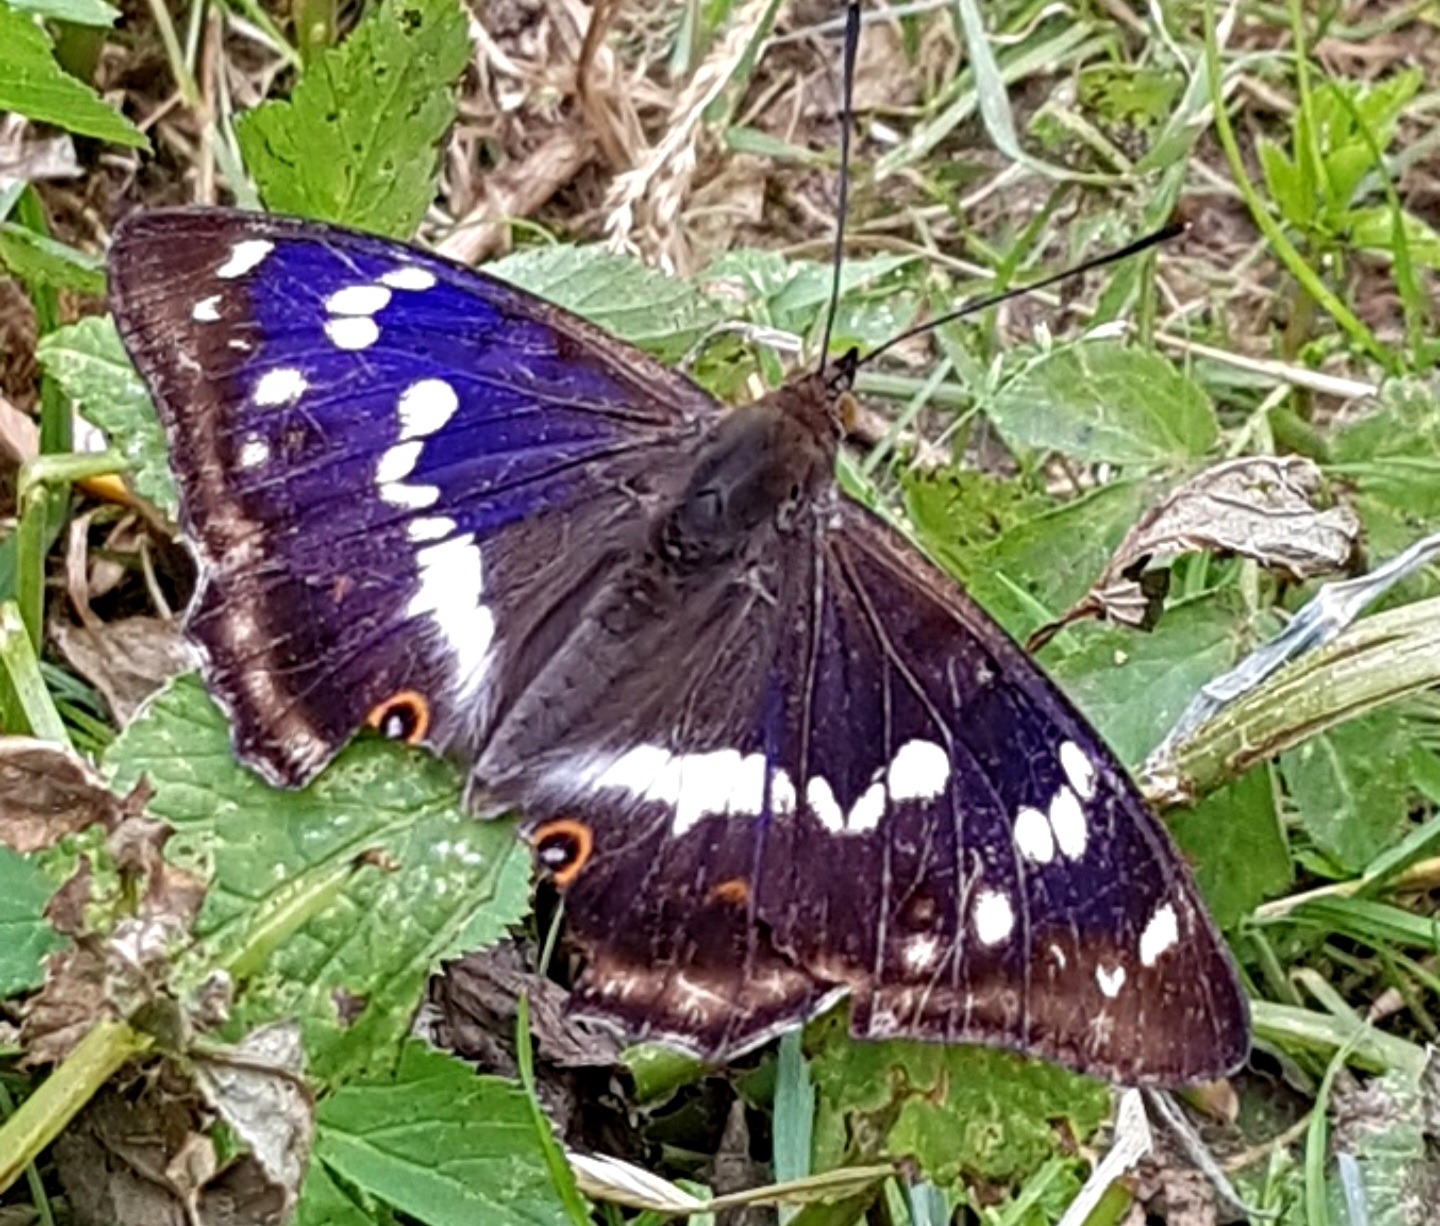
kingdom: Animalia
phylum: Arthropoda
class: Insecta
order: Lepidoptera
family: Nymphalidae
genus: Apatura
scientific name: Apatura iris
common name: Iris
